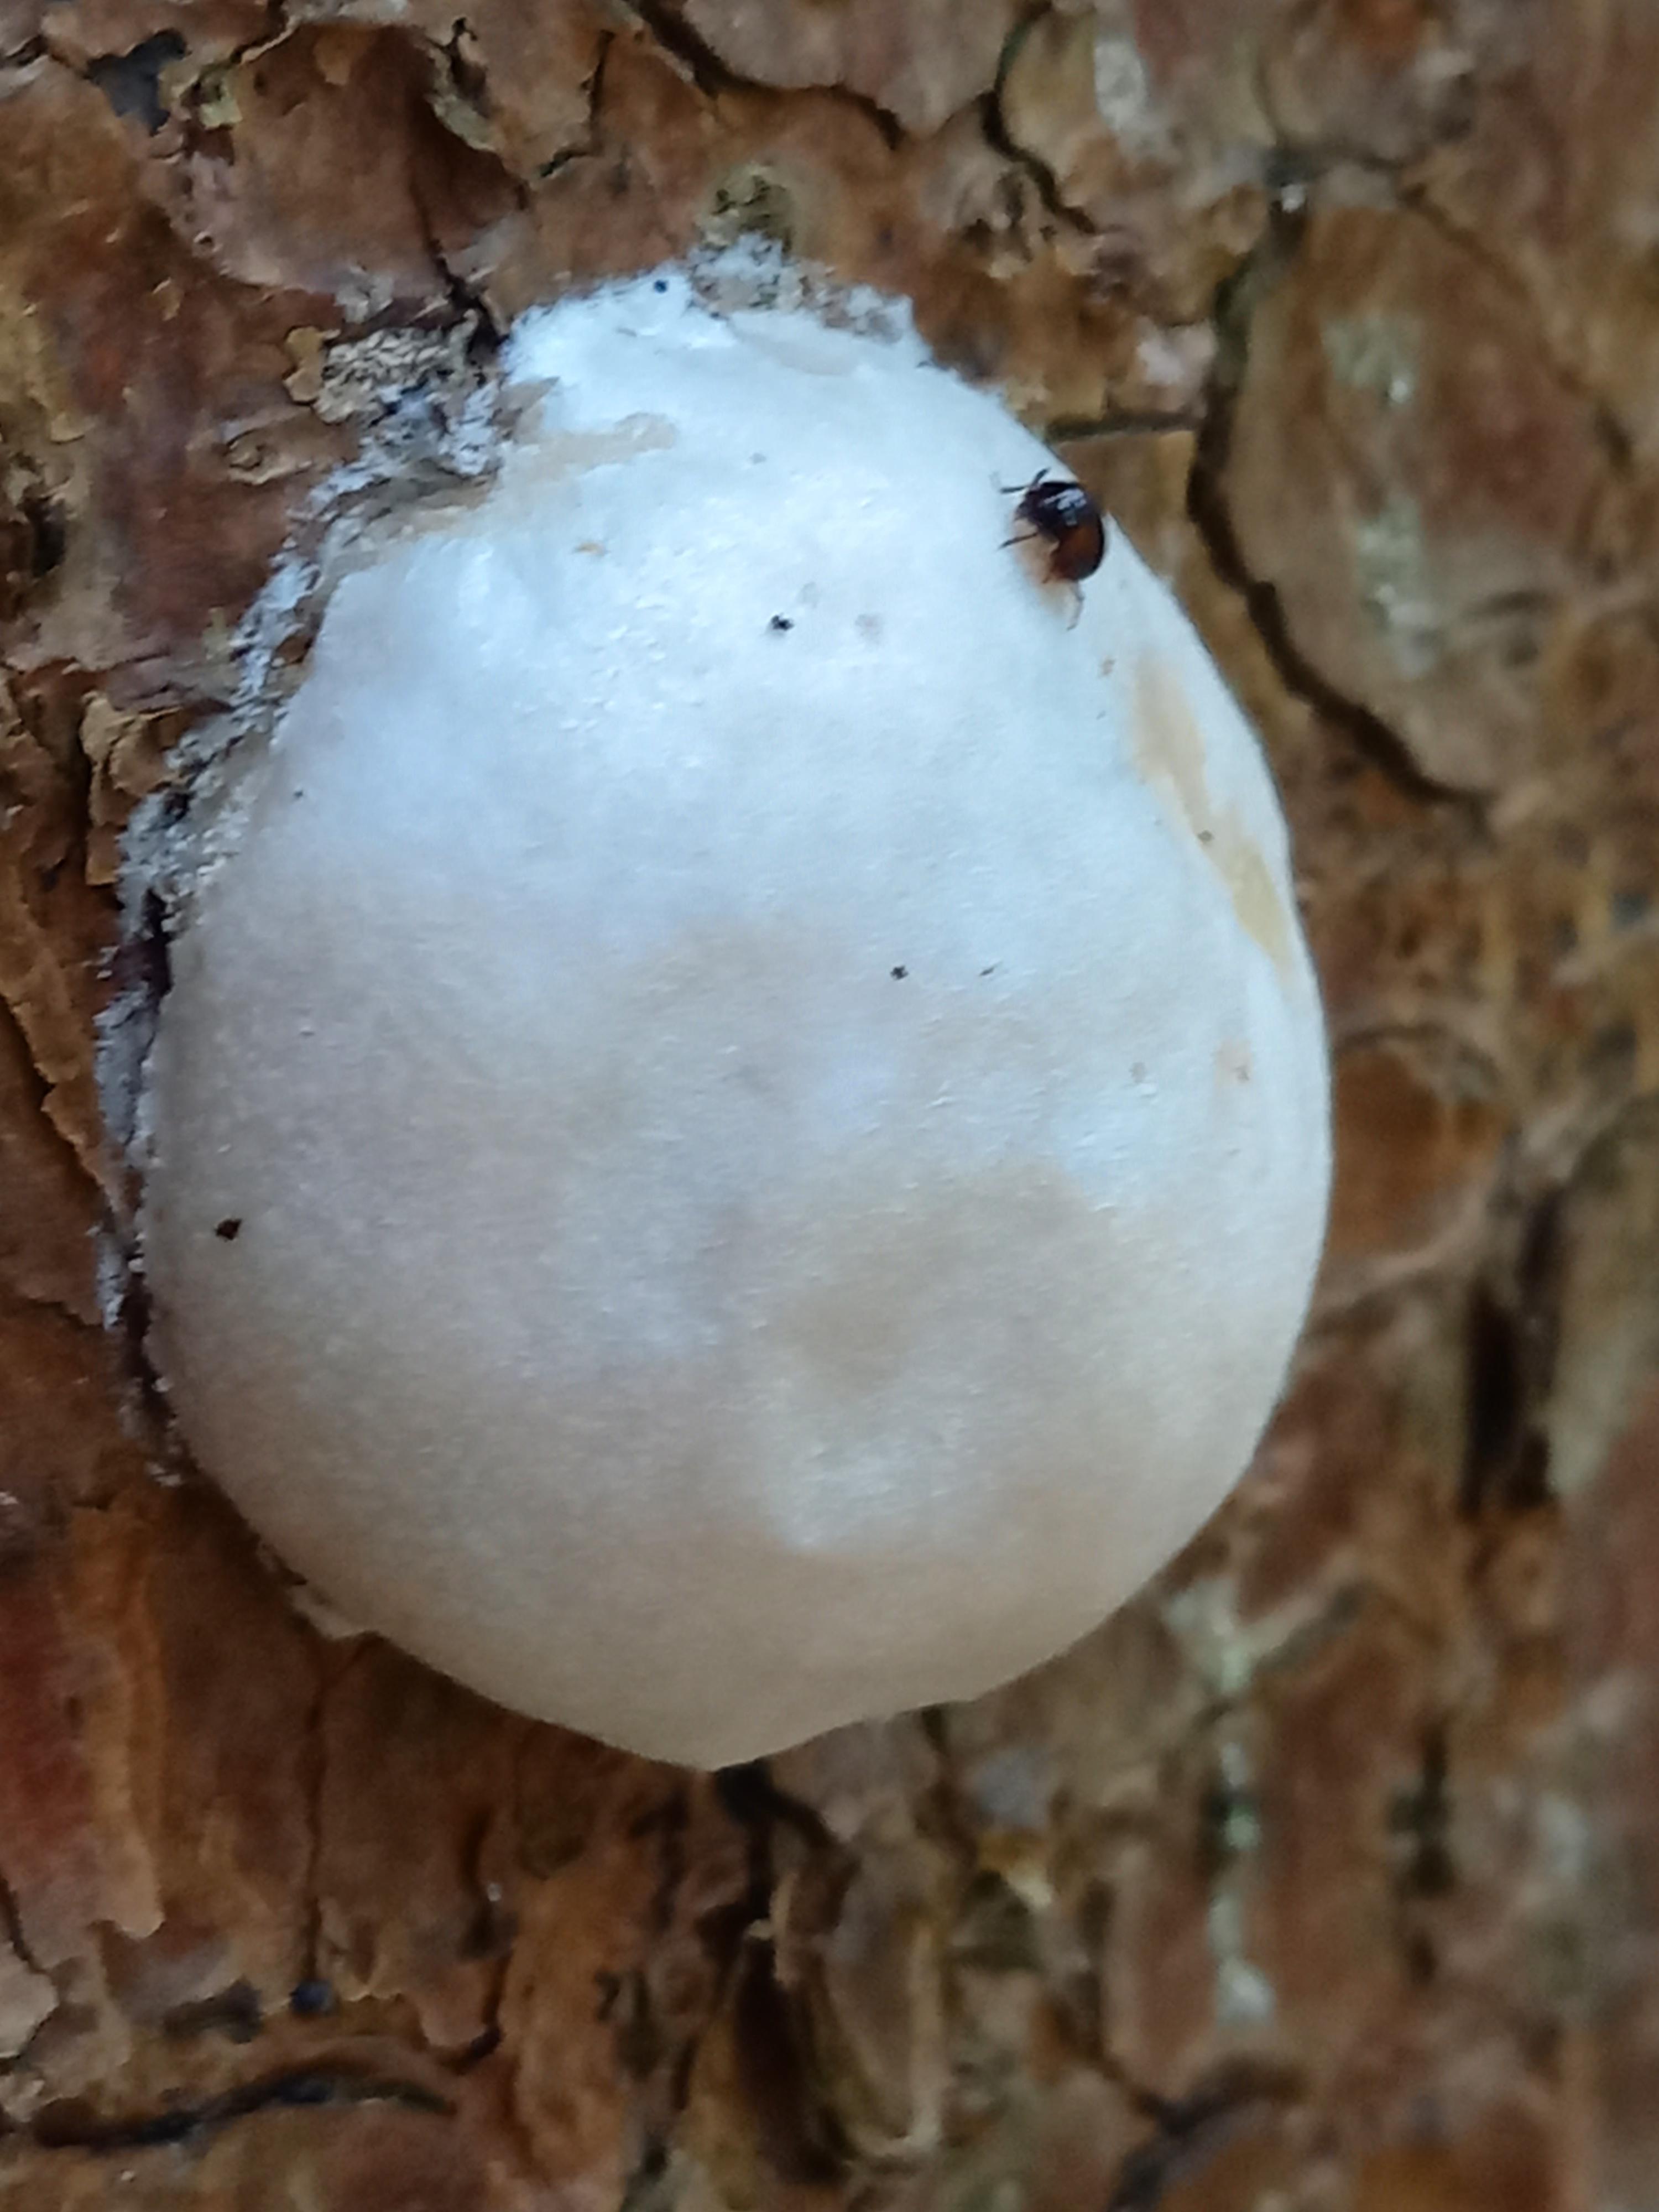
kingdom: Protozoa
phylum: Mycetozoa
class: Myxomycetes
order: Cribrariales
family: Tubiferaceae
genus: Reticularia
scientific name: Reticularia lycoperdon
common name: skinnende støvpude
